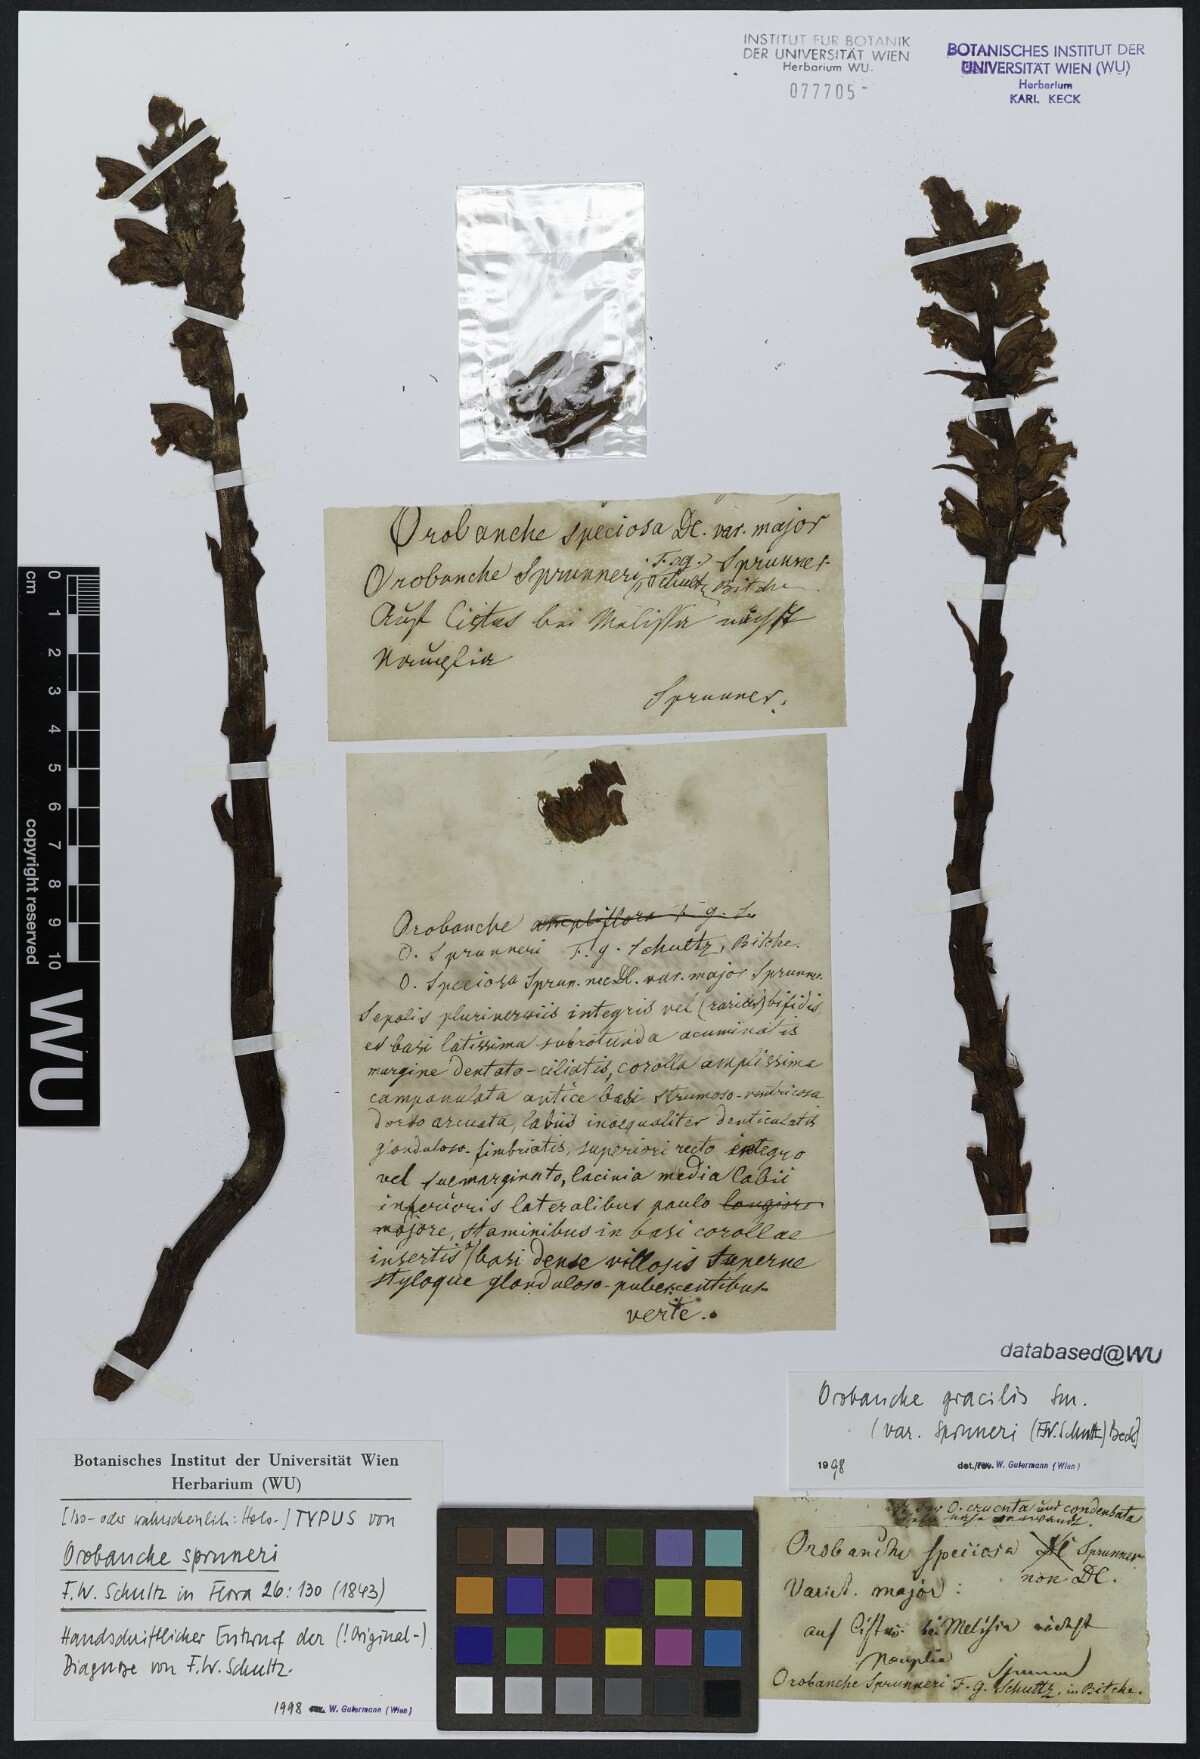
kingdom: Plantae
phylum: Tracheophyta
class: Magnoliopsida
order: Lamiales
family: Orobanchaceae
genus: Orobanche
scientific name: Orobanche gracilis
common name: Slender broomrape
